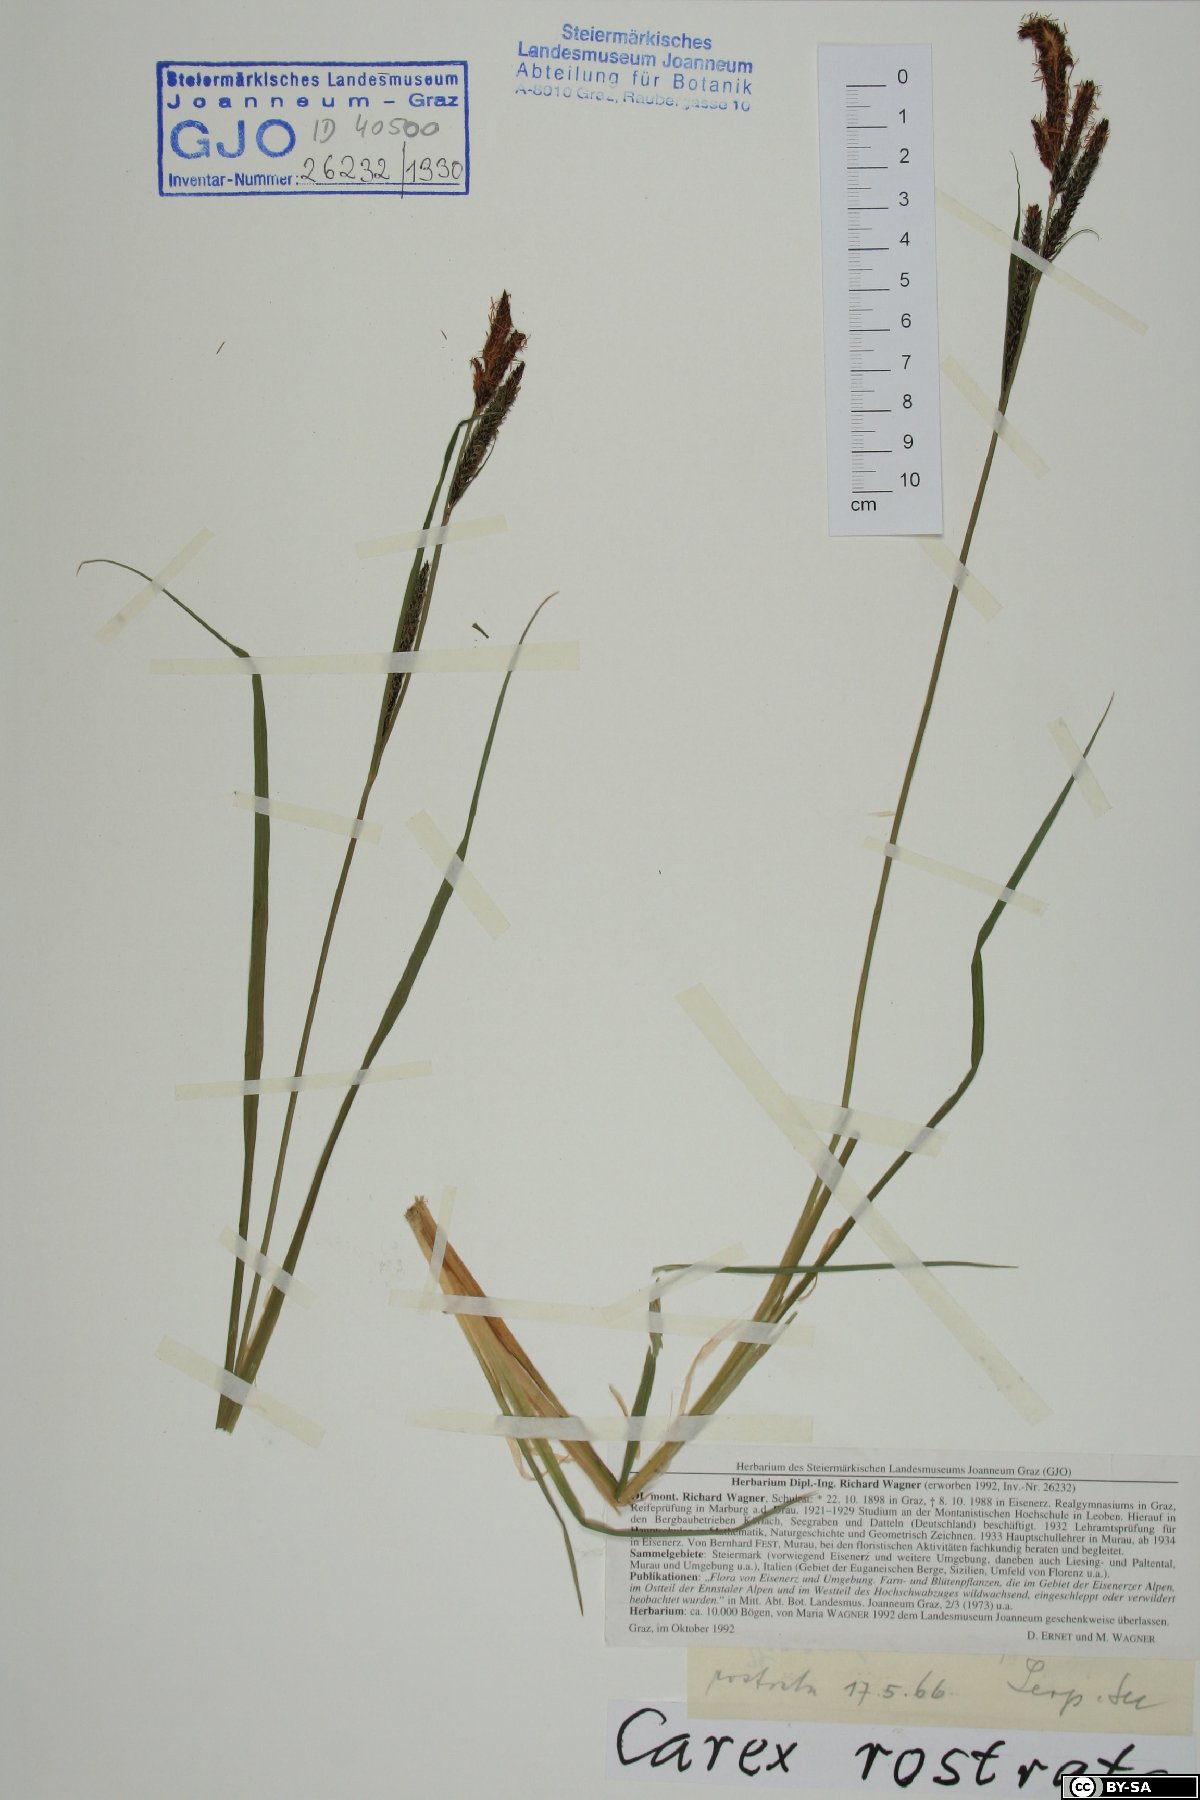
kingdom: Plantae
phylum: Tracheophyta
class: Liliopsida
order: Poales
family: Cyperaceae
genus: Carex
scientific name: Carex rostrata
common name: Bottle sedge
